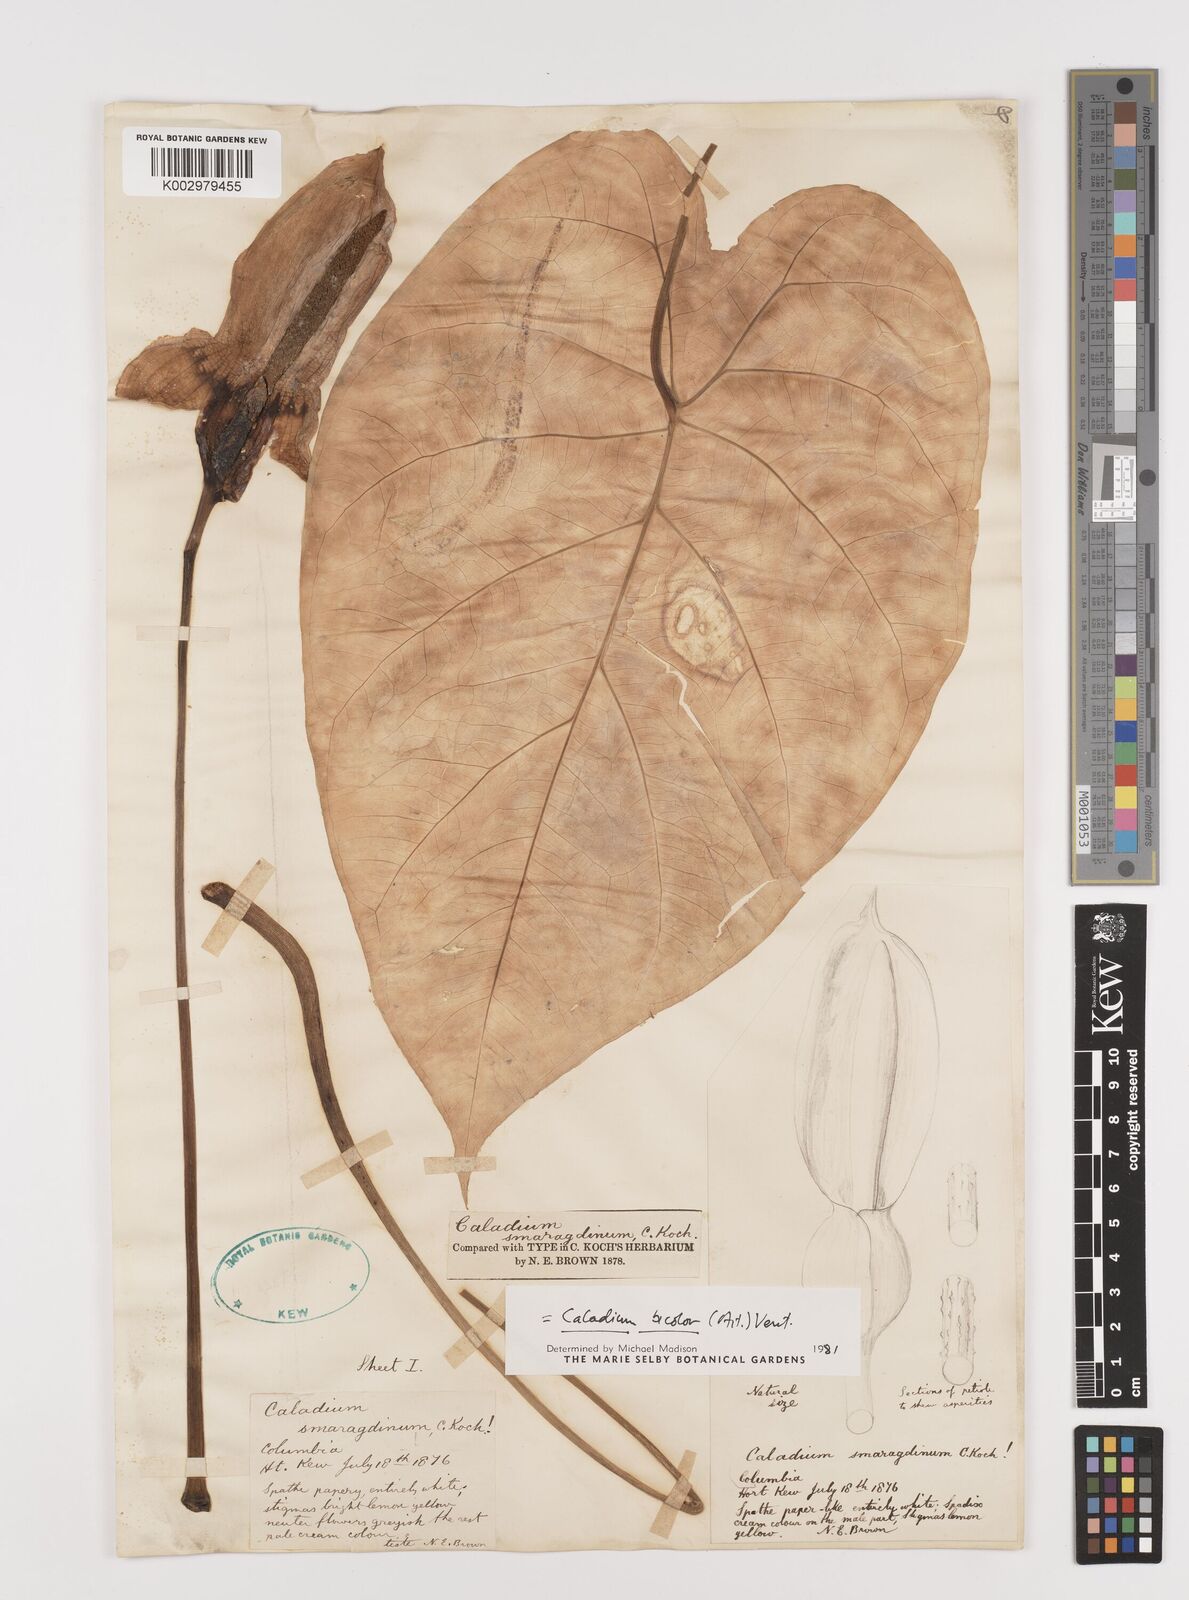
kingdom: Plantae
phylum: Tracheophyta
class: Liliopsida
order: Alismatales
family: Araceae
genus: Caladium
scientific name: Caladium bicolor
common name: Artist's pallet
